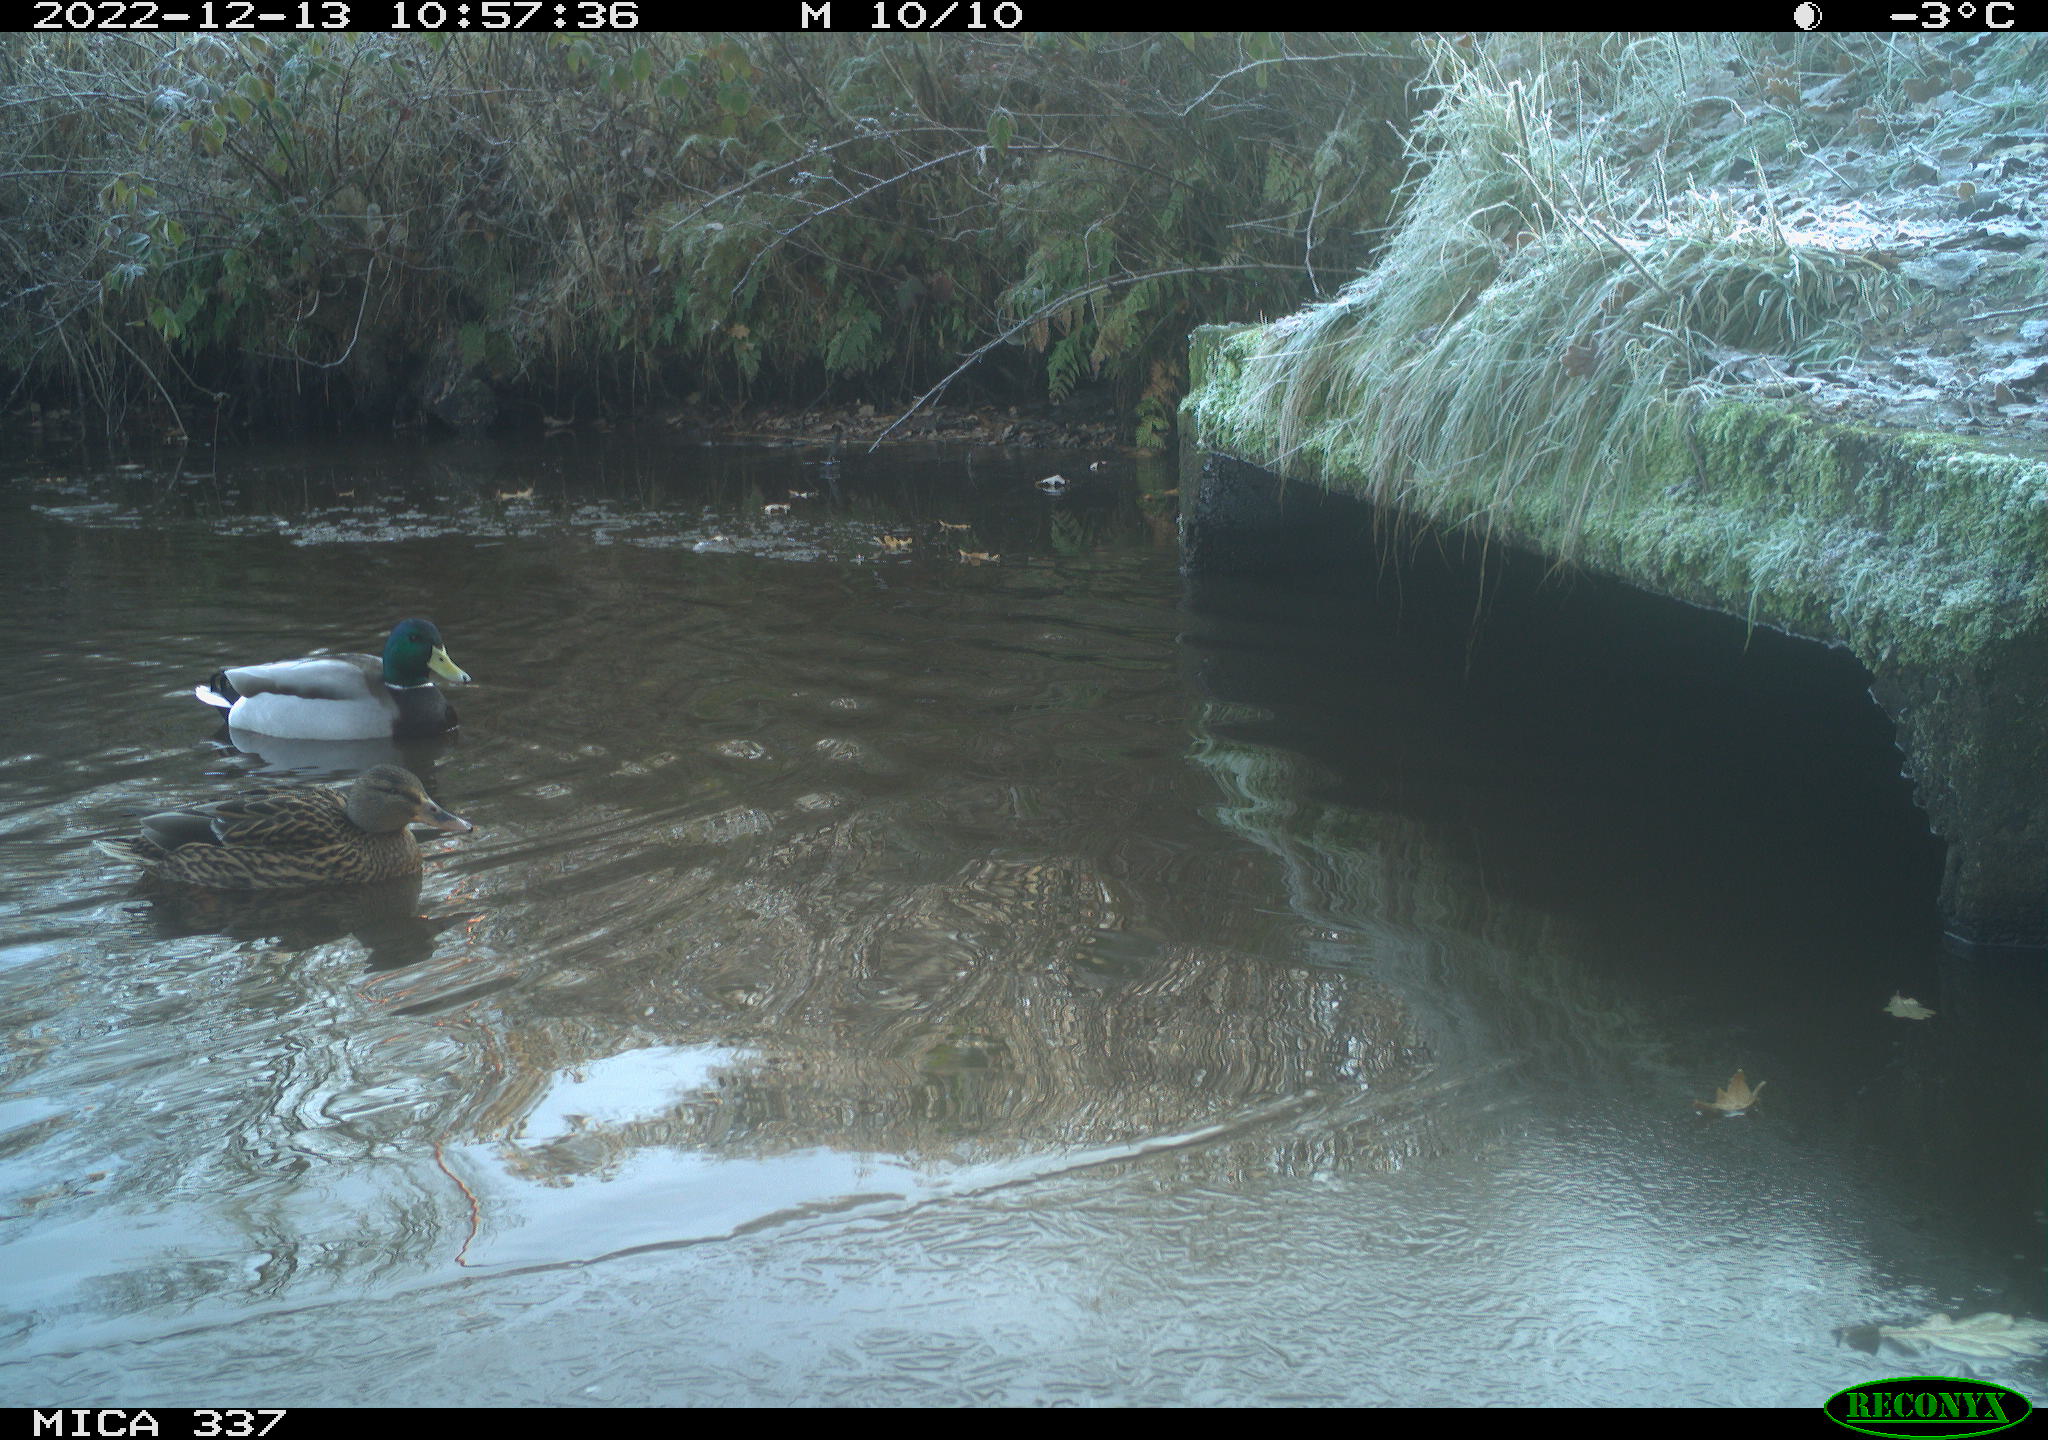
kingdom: Animalia
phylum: Chordata
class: Aves
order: Anseriformes
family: Anatidae
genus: Anas
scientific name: Anas
